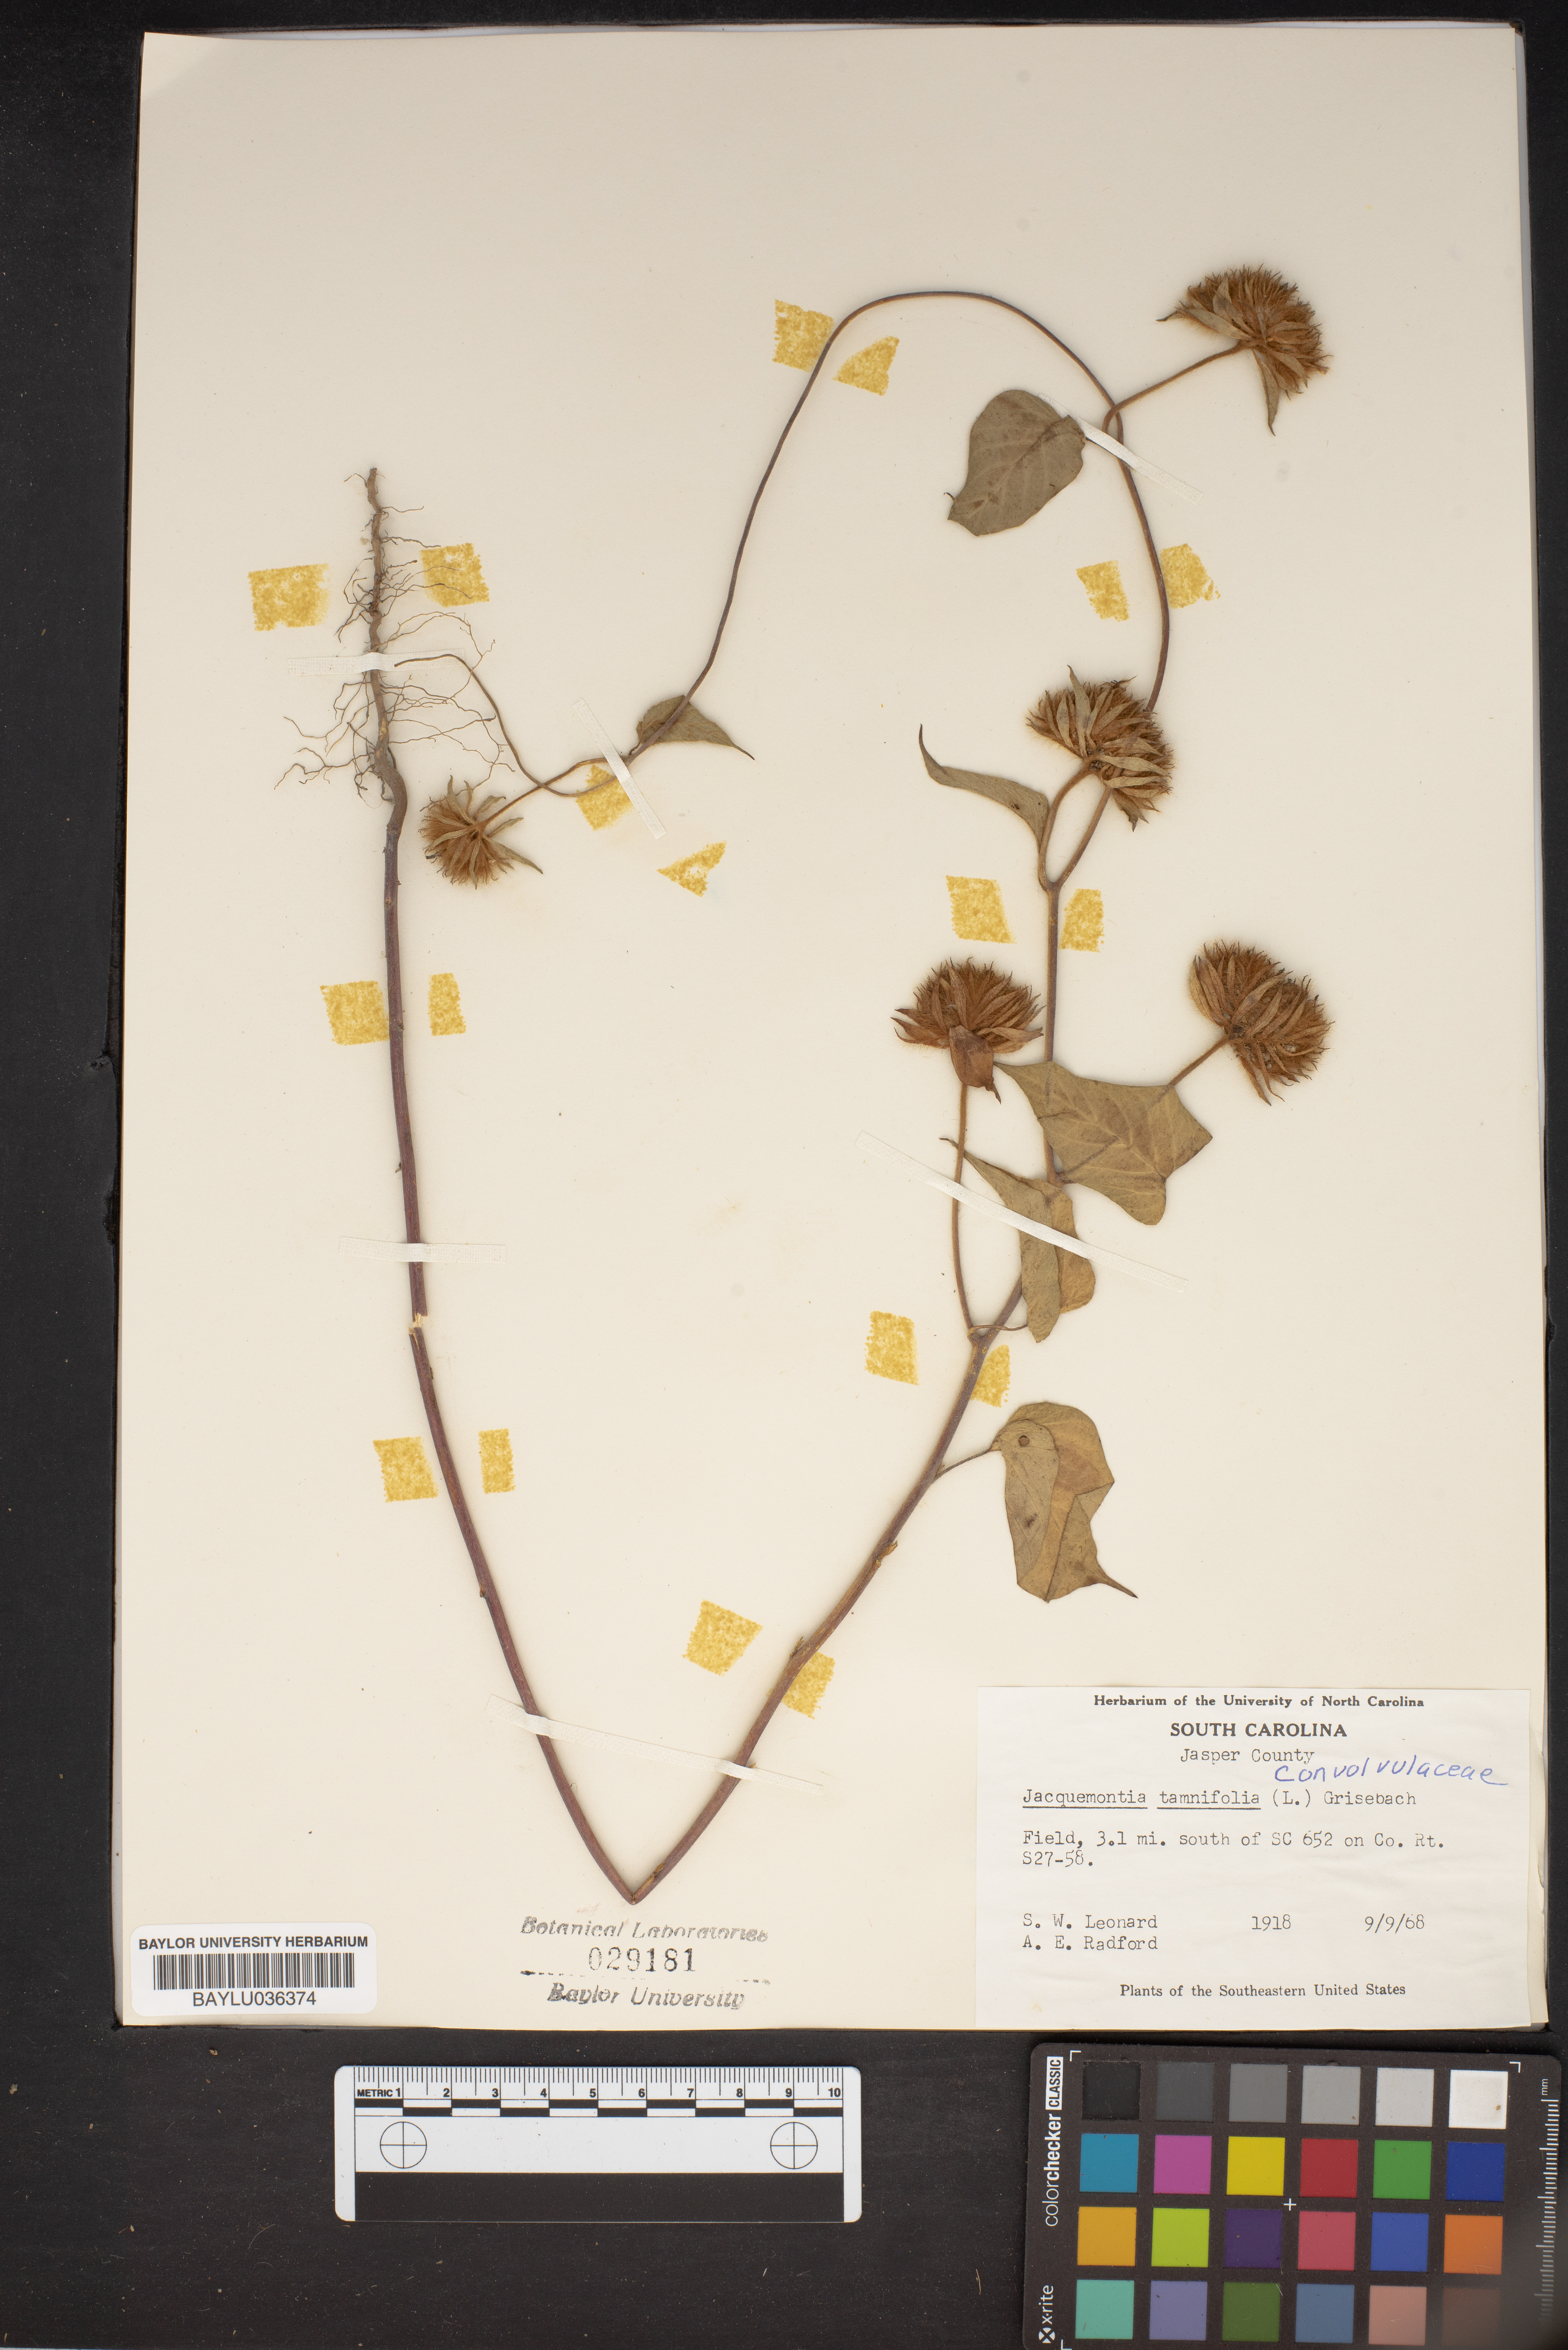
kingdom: Plantae
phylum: Tracheophyta
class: Magnoliopsida
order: Solanales
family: Convolvulaceae
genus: Jacquemontia
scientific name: Jacquemontia tamnifolia
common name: Hairy clustervine
